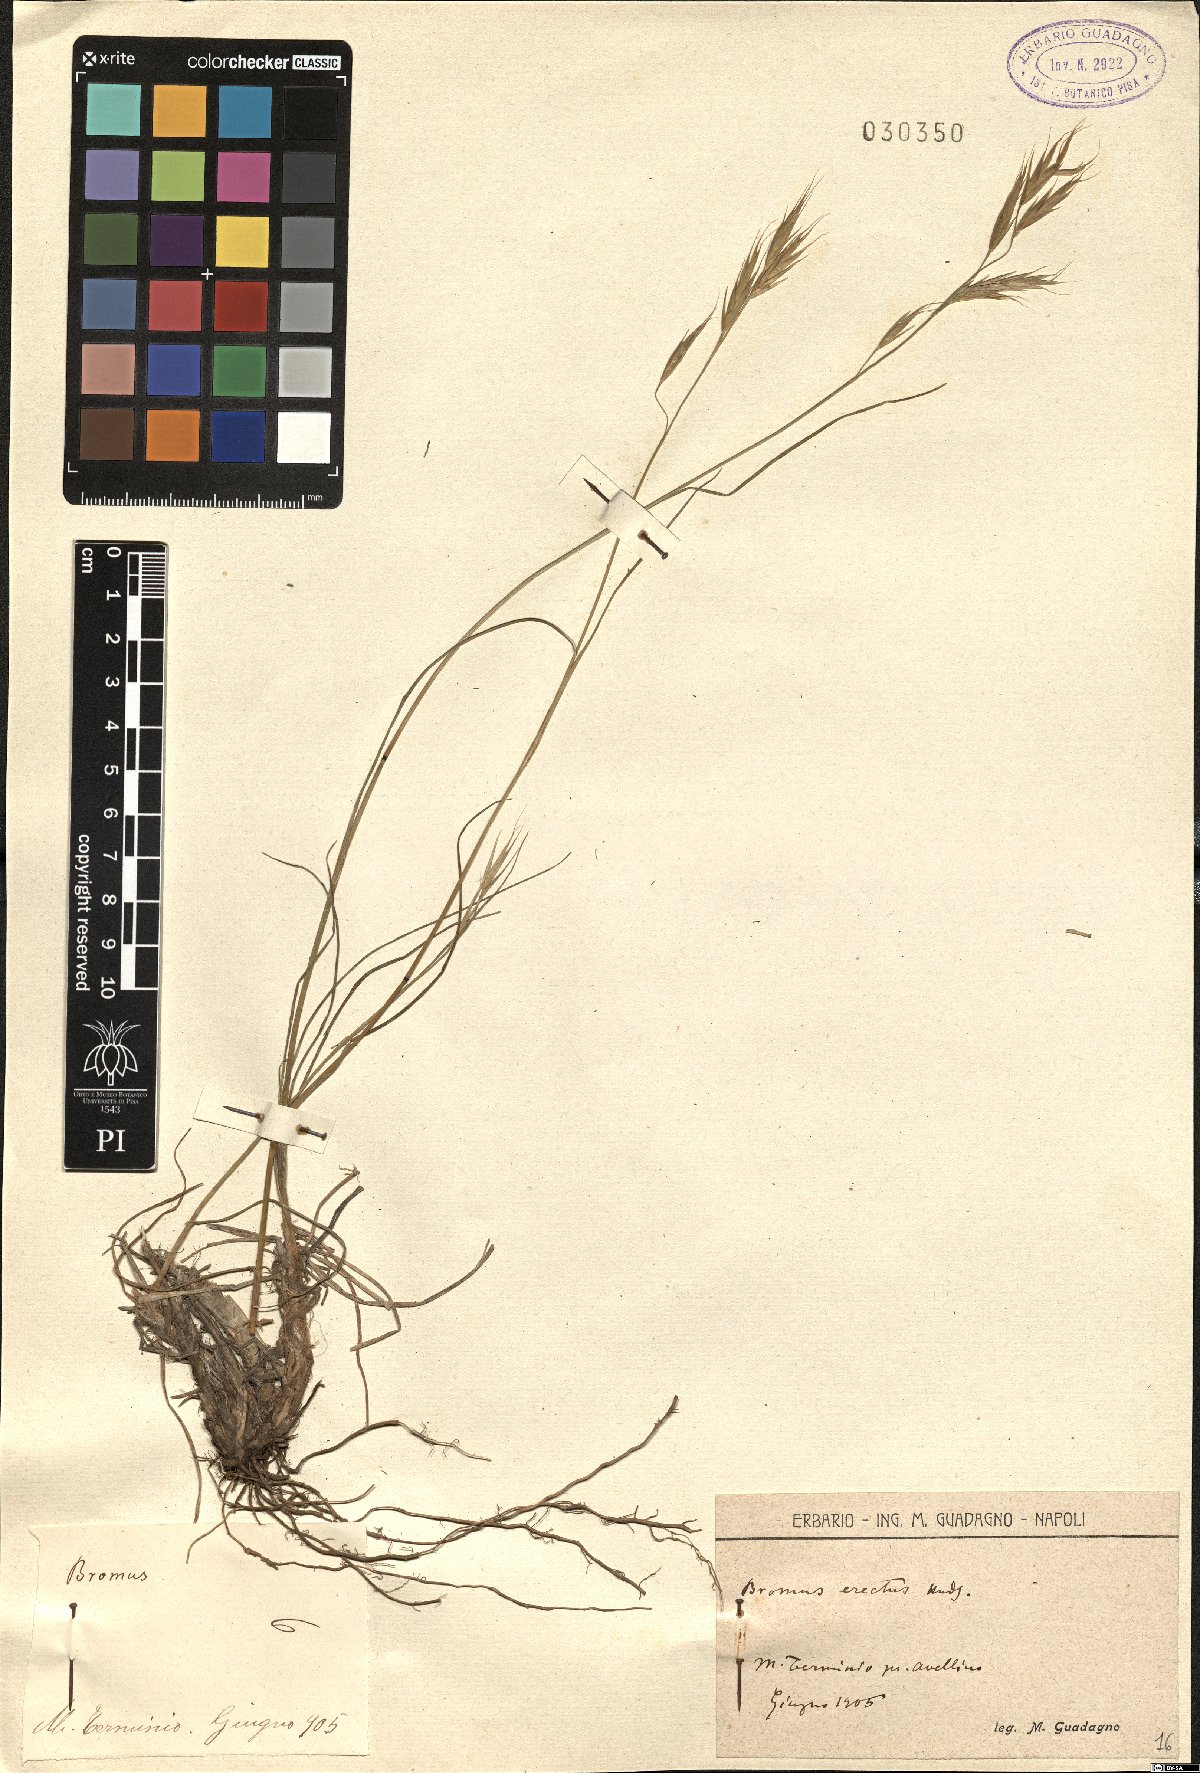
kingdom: Plantae
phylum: Tracheophyta
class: Liliopsida
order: Poales
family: Poaceae
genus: Bromus
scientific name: Bromus erectus
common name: Erect brome
